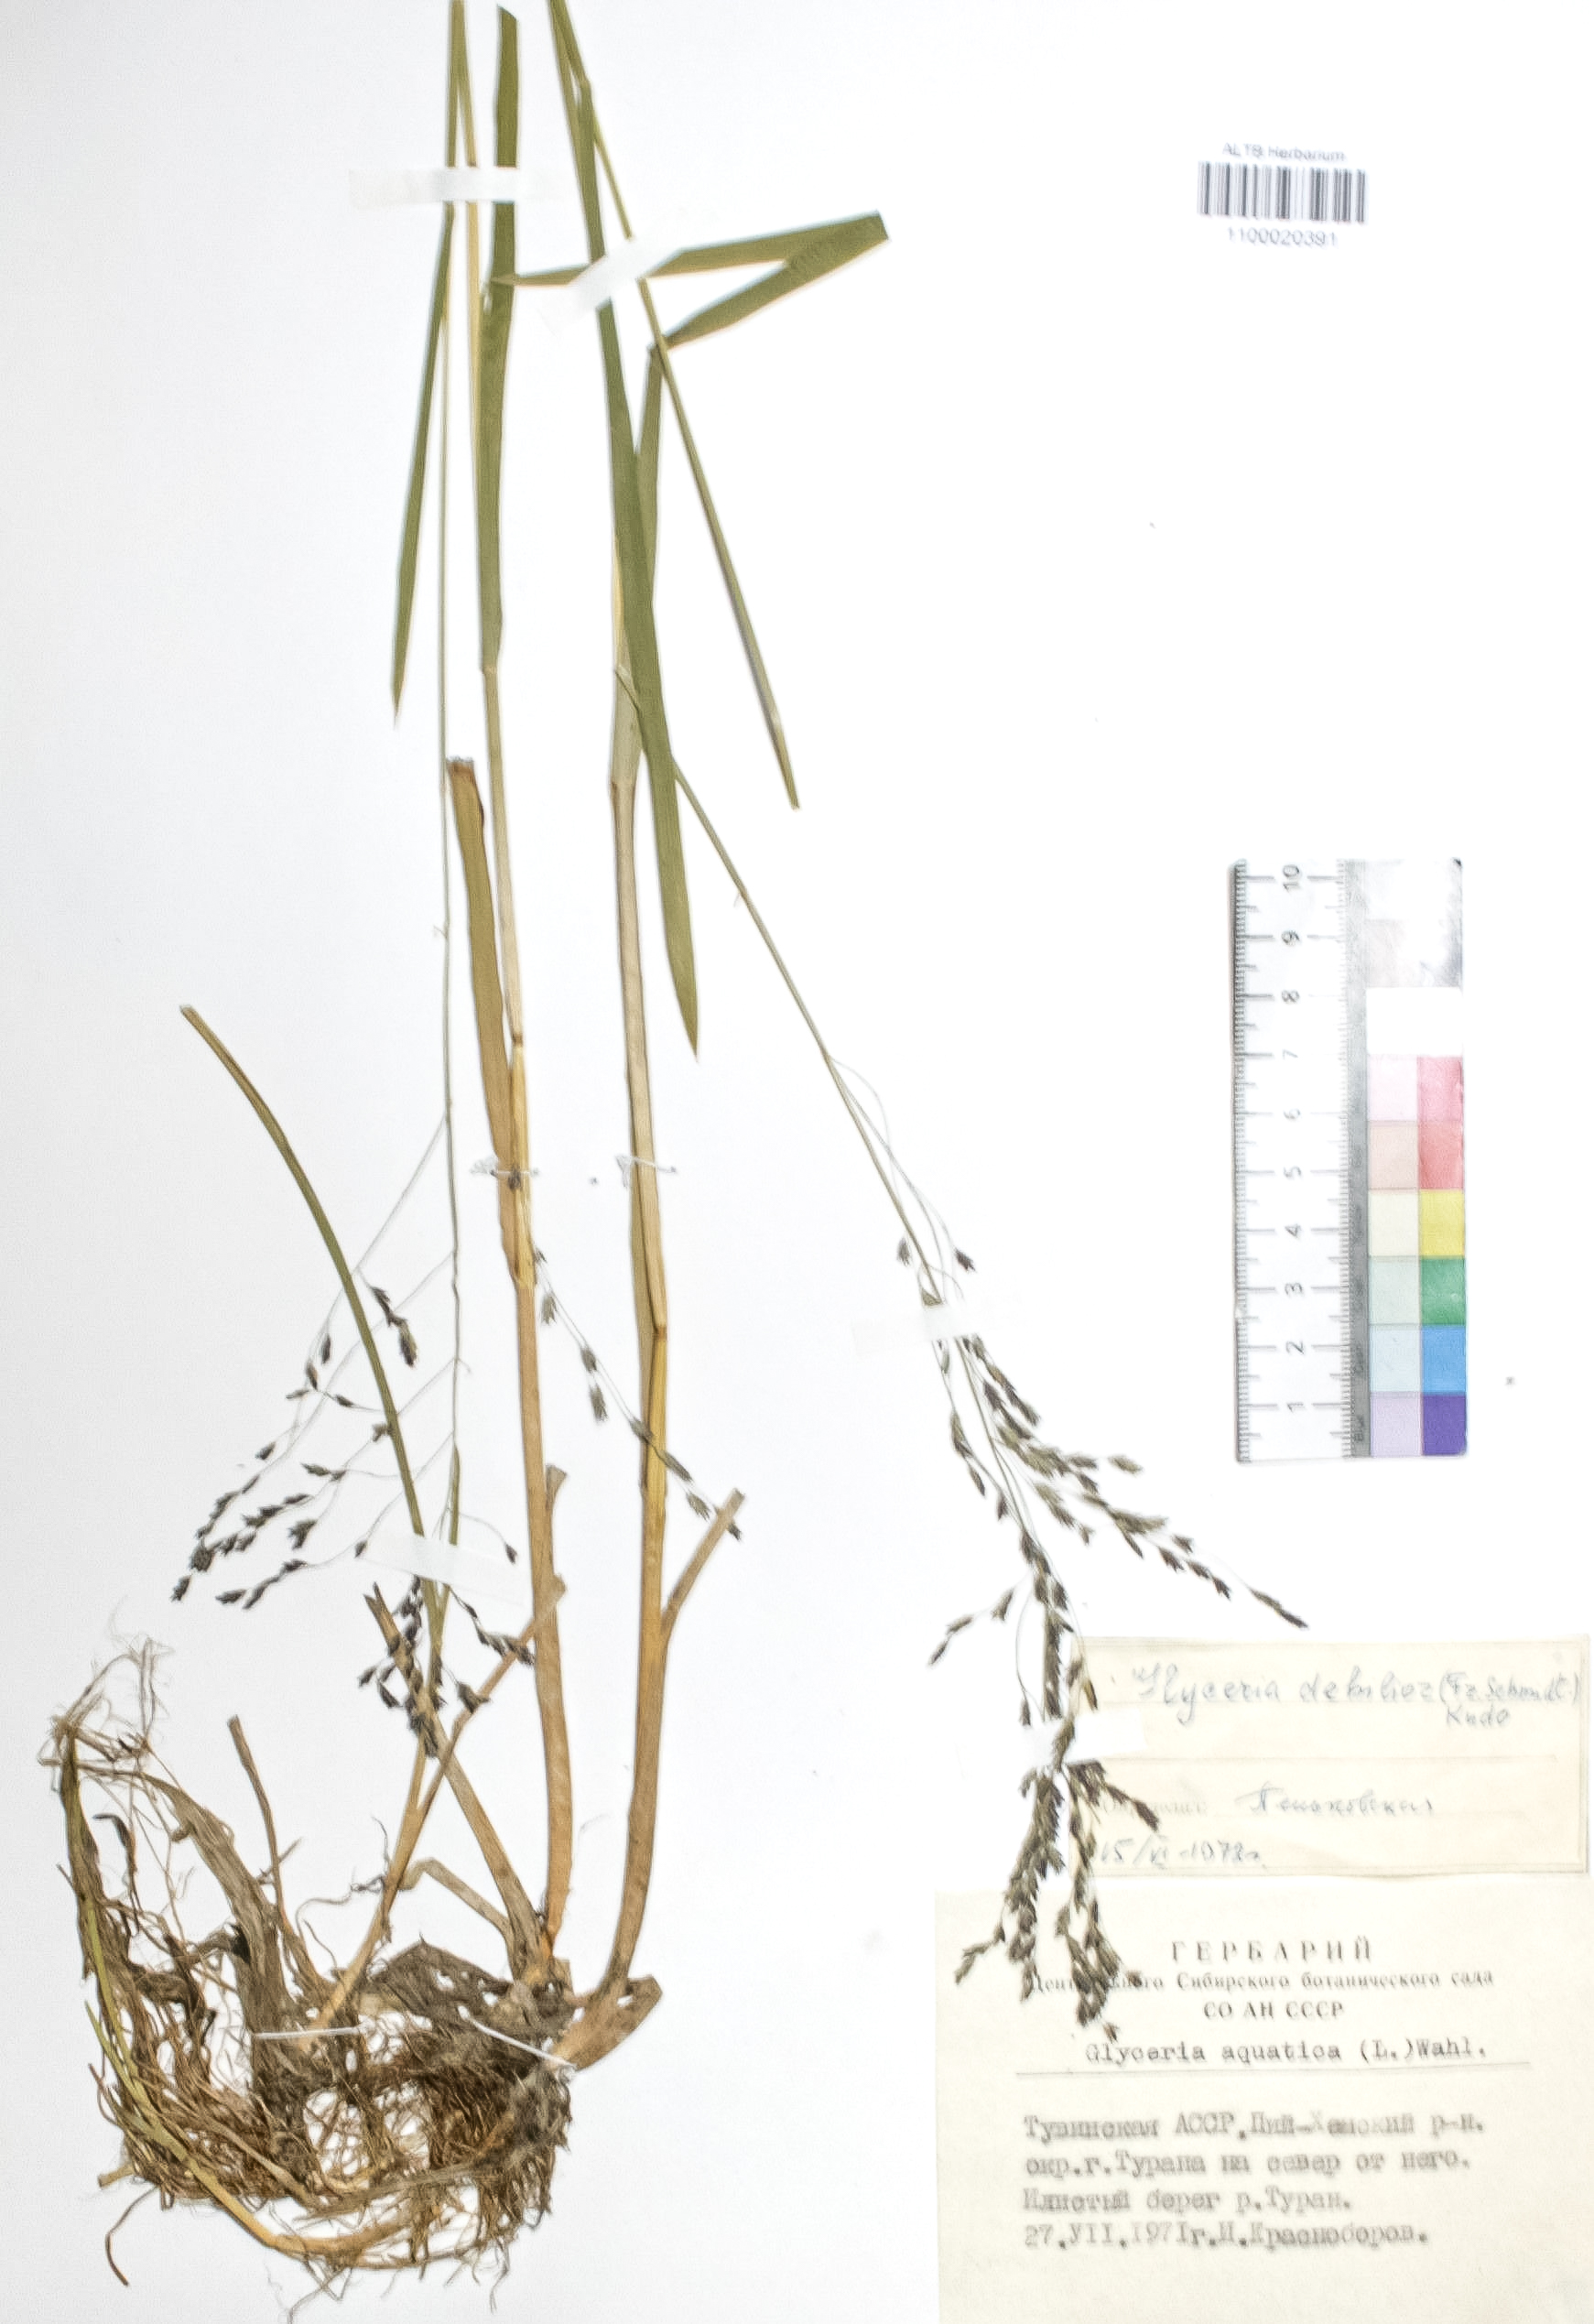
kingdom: Plantae
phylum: Tracheophyta
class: Liliopsida
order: Poales
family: Poaceae
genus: Glyceria
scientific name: Glyceria lithuanica
